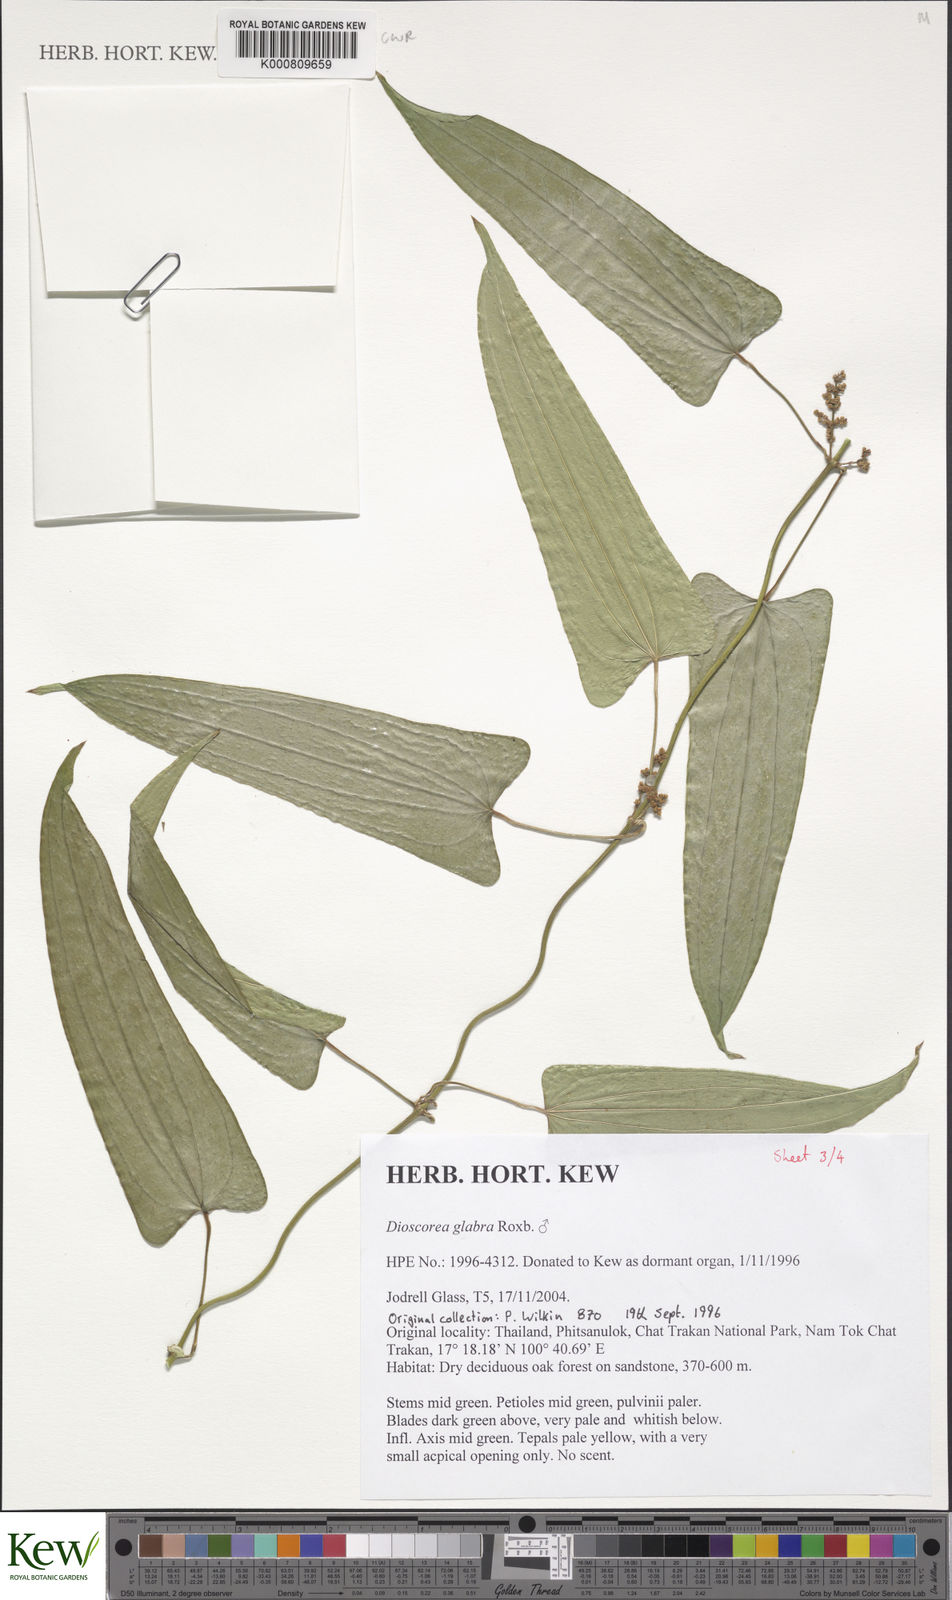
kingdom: Plantae
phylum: Tracheophyta
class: Liliopsida
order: Dioscoreales
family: Dioscoreaceae
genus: Dioscorea
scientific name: Dioscorea glabra
